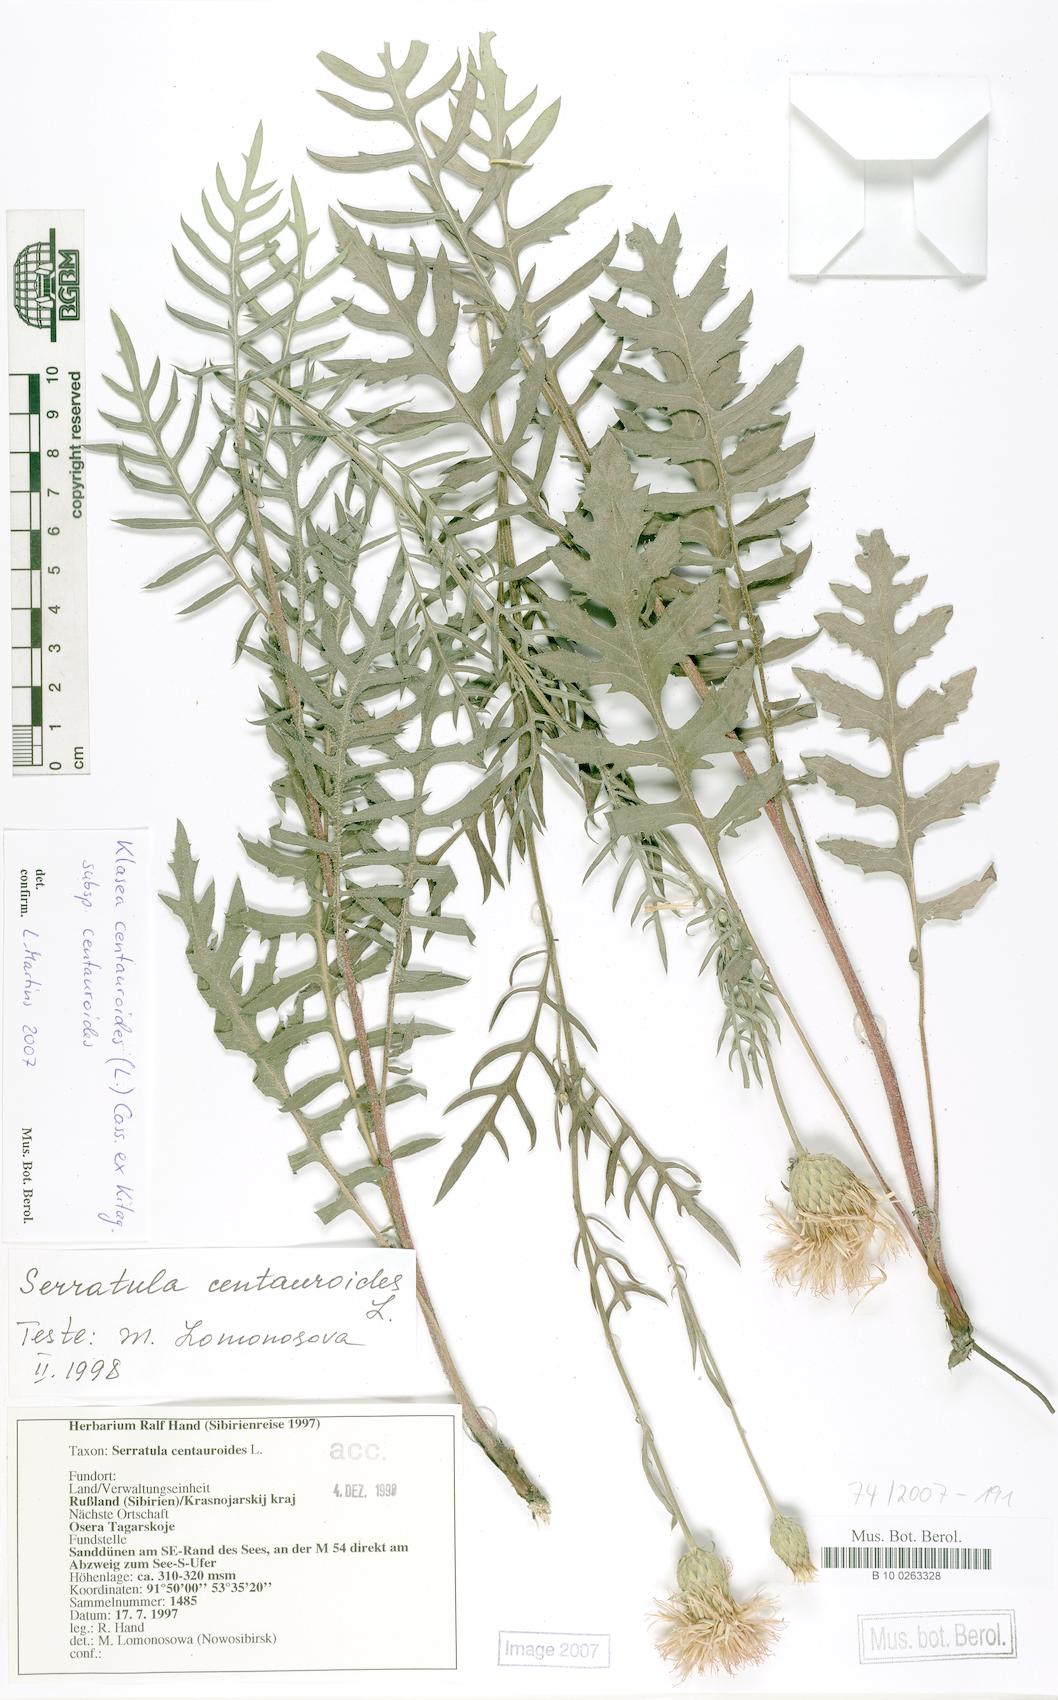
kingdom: Plantae
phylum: Tracheophyta
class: Magnoliopsida
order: Asterales
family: Asteraceae
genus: Klasea
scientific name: Klasea centauroides
